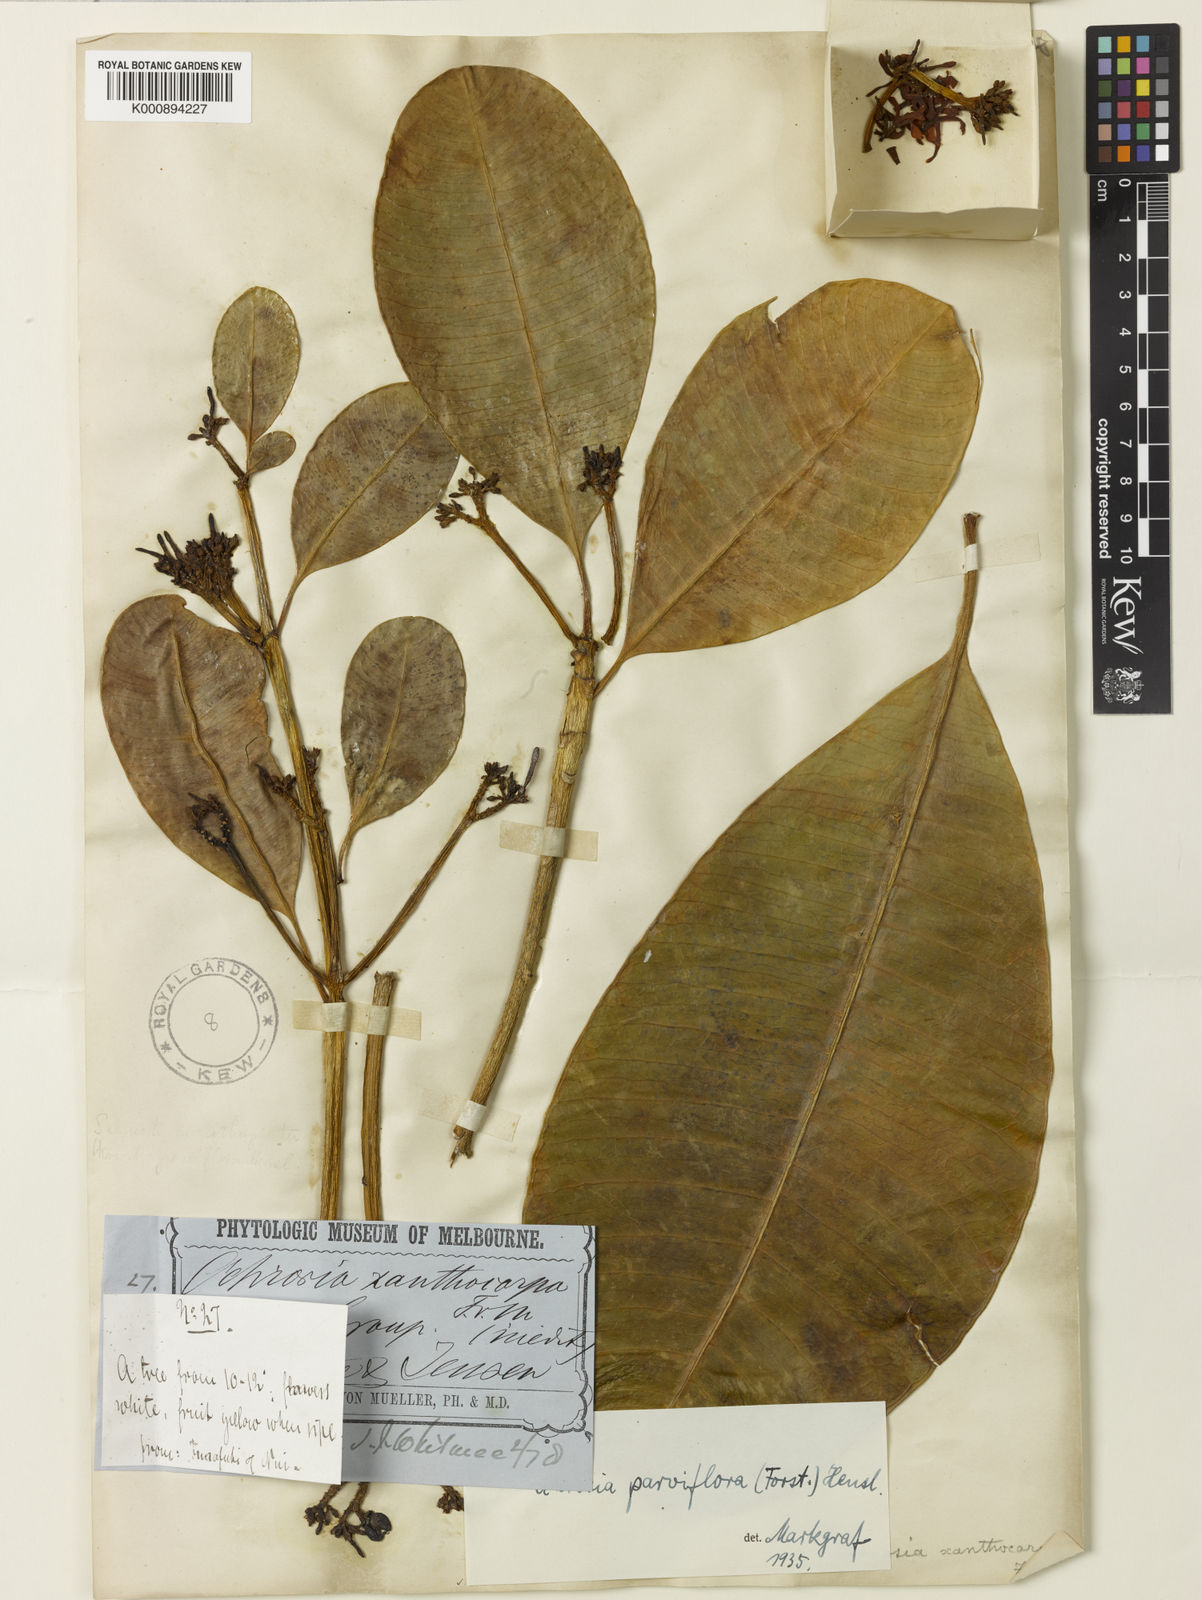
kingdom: Plantae
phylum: Tracheophyta
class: Magnoliopsida
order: Gentianales
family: Apocynaceae
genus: Ochrosia
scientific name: Ochrosia oppositifolia
